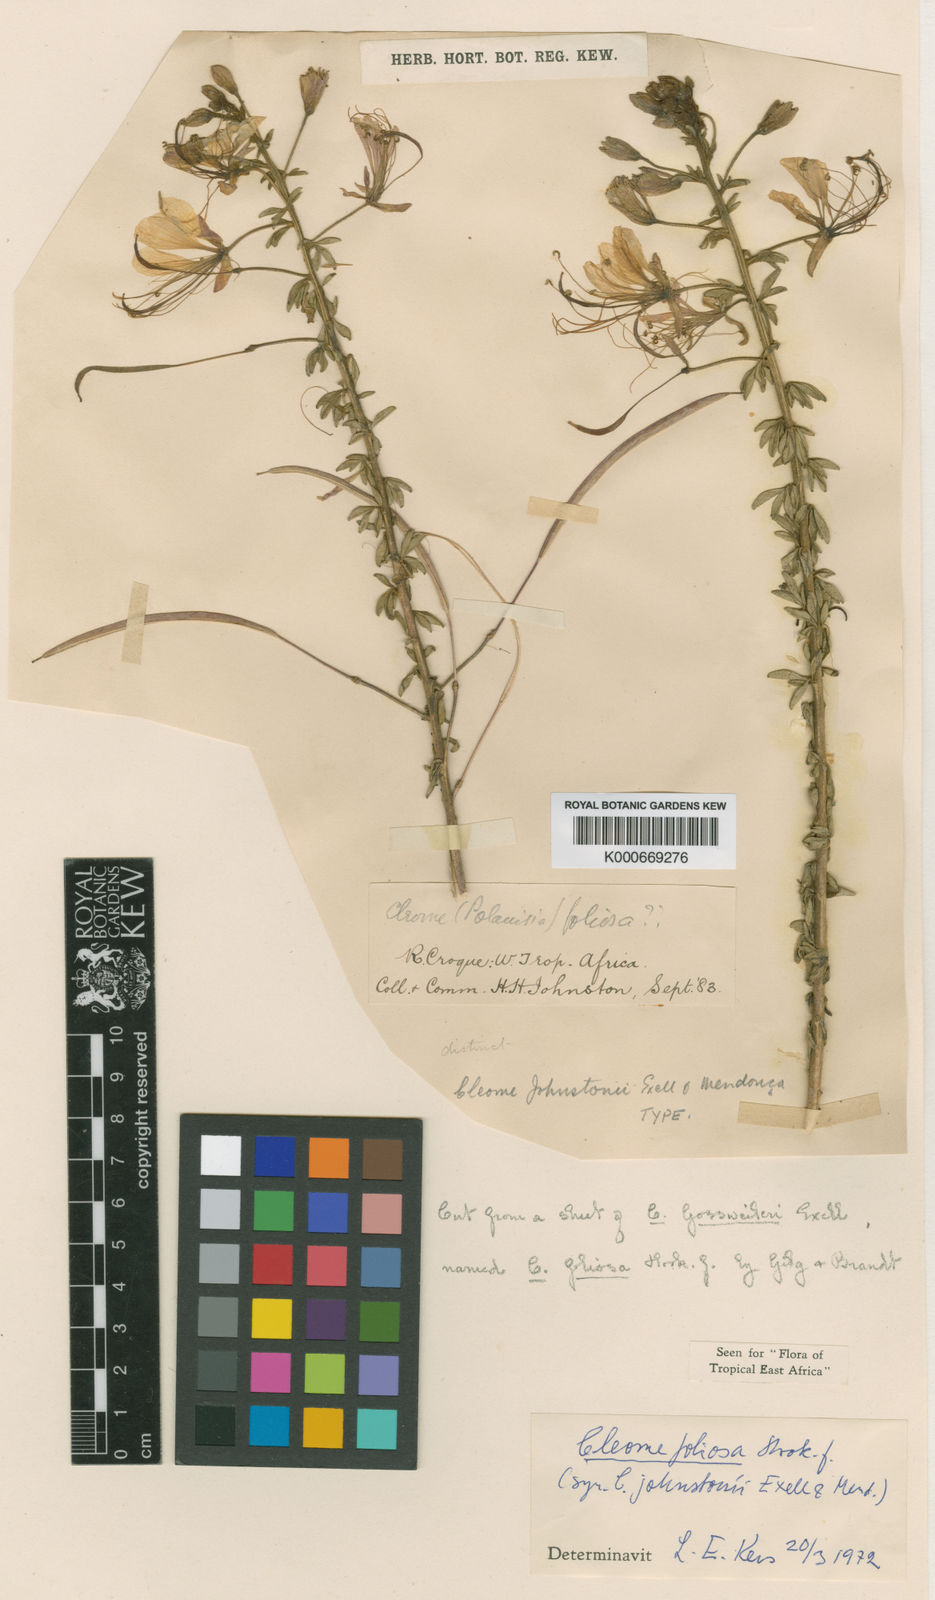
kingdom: Plantae
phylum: Tracheophyta
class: Magnoliopsida
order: Brassicales
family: Cleomaceae
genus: Cleome
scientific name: Cleome
